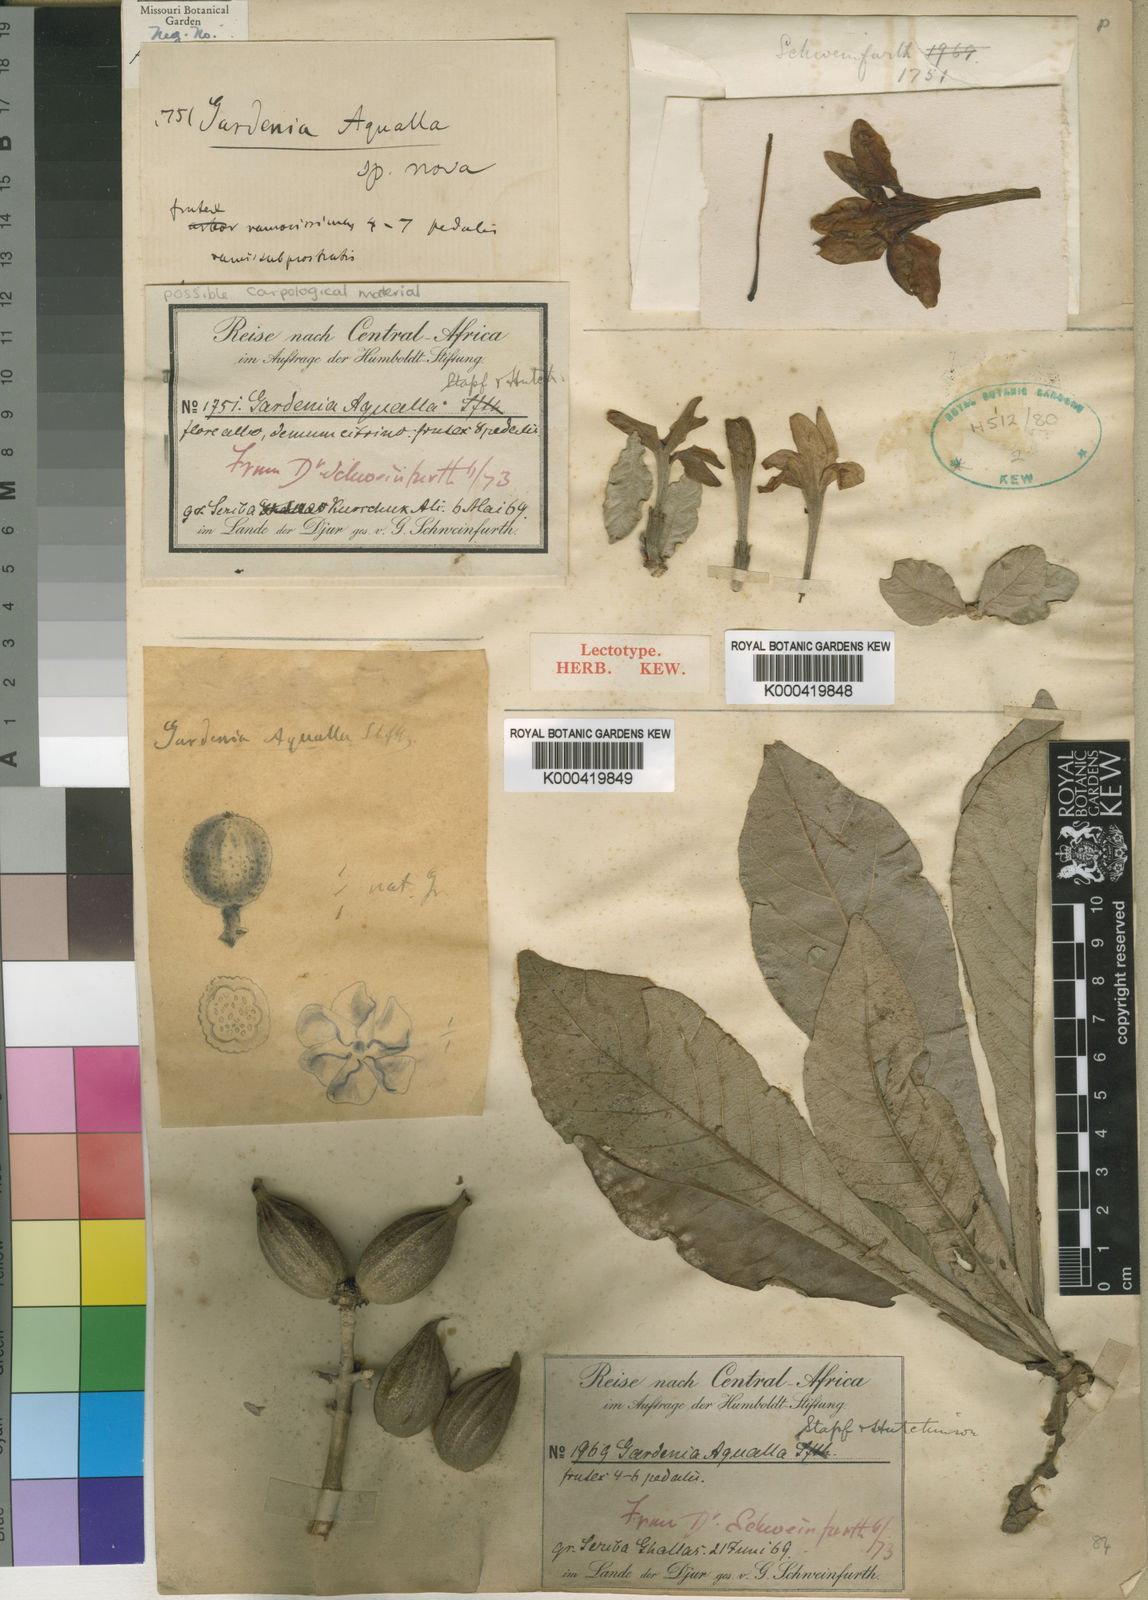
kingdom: Plantae
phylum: Tracheophyta
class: Magnoliopsida
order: Gentianales
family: Rubiaceae
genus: Gardenia
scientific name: Gardenia aqualla
